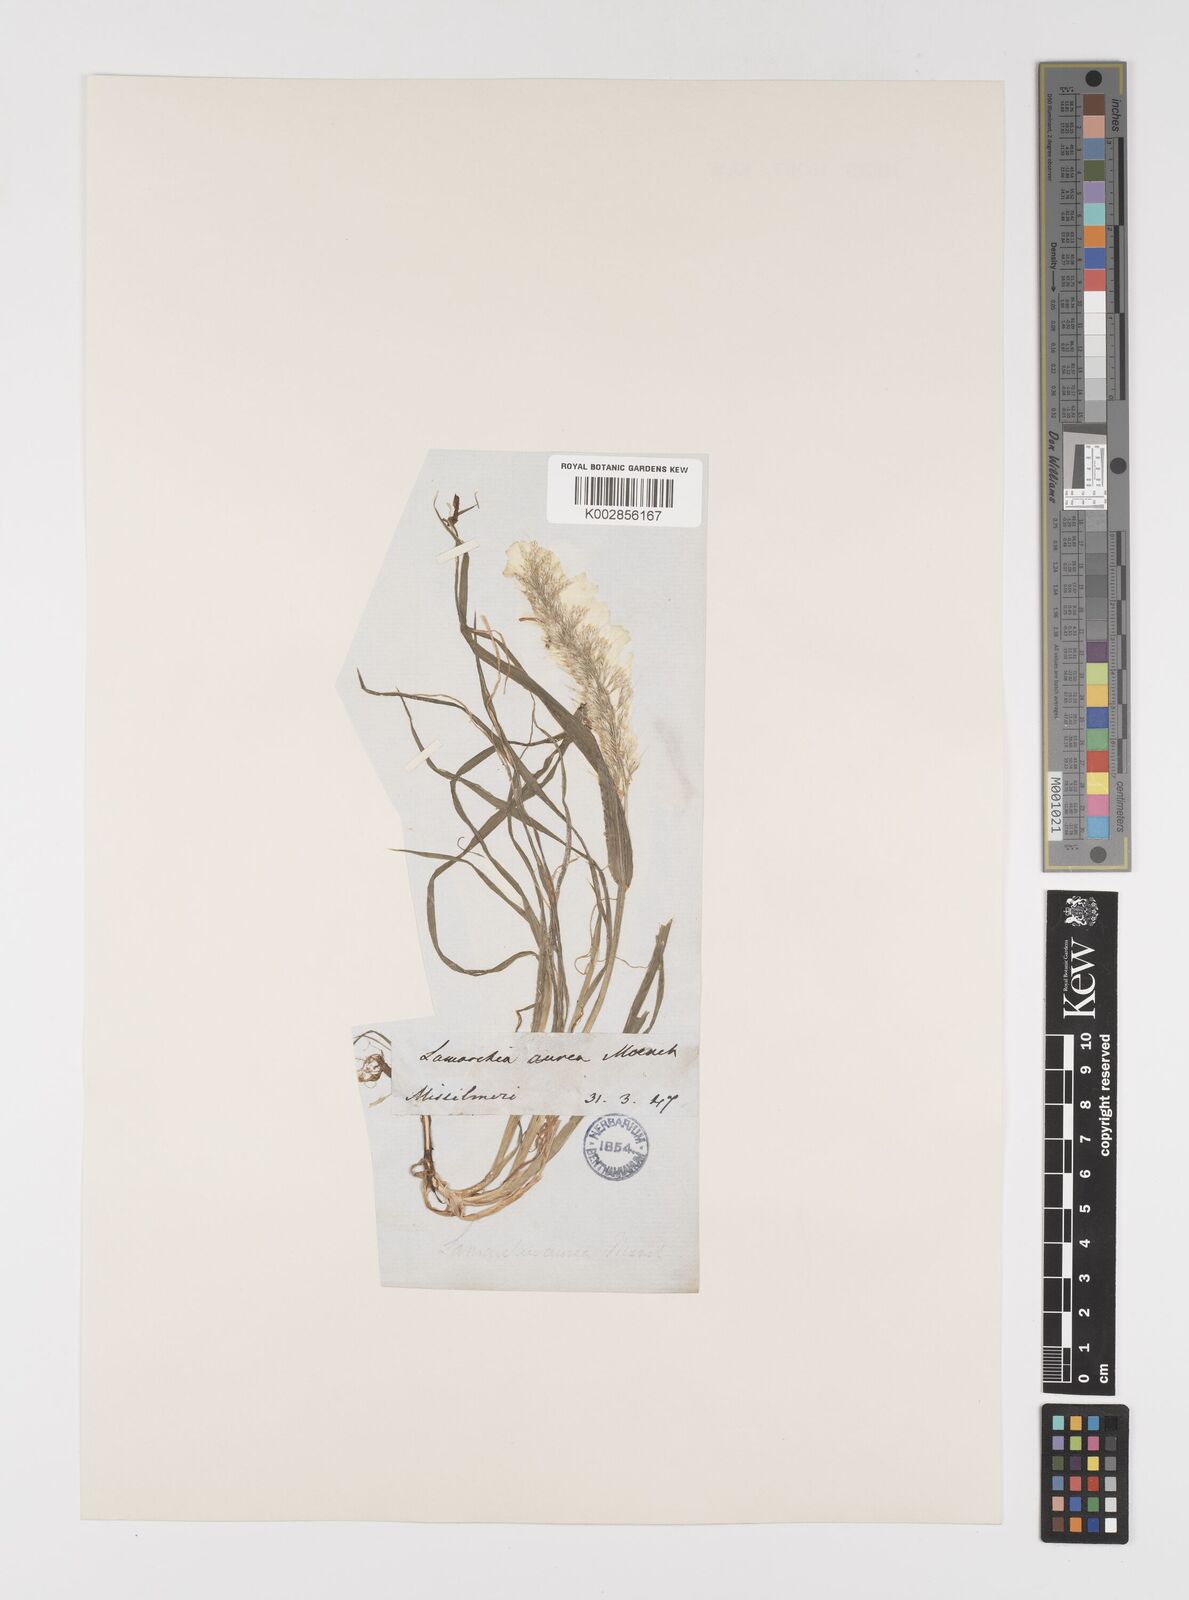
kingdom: Plantae
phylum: Tracheophyta
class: Liliopsida
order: Poales
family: Poaceae
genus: Lamarckia
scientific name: Lamarckia aurea
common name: Golden dog's-tail
